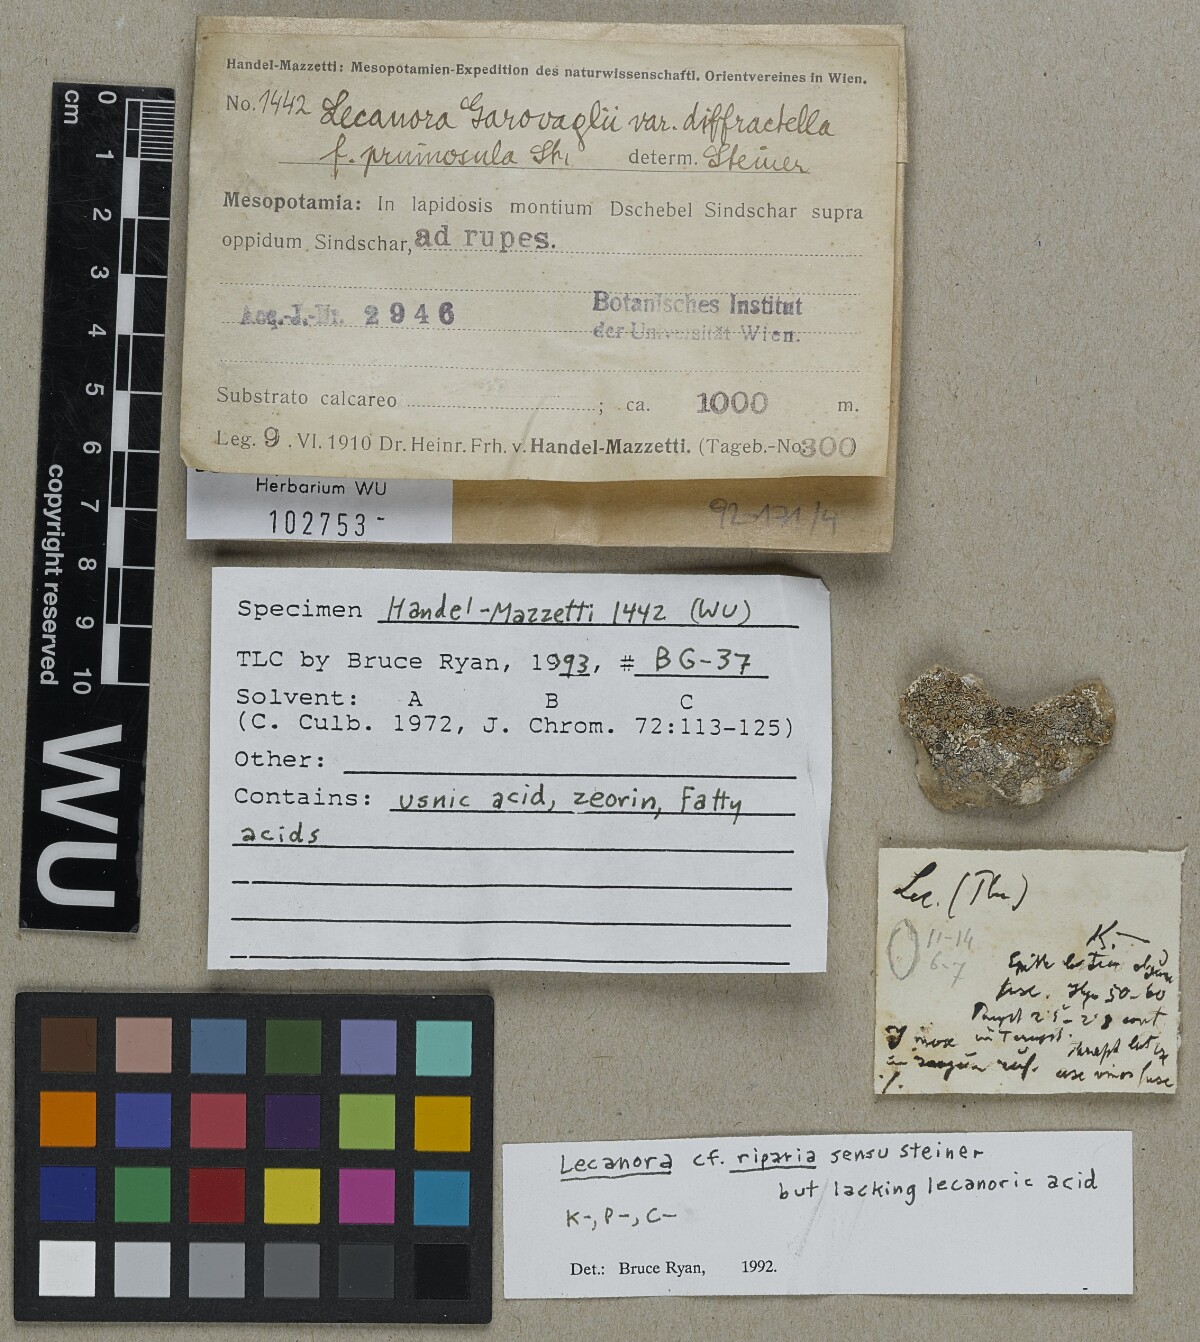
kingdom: Fungi
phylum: Ascomycota
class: Lecanoromycetes
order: Lecanorales
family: Lecanoraceae
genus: Lecanora
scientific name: Lecanora grantii
